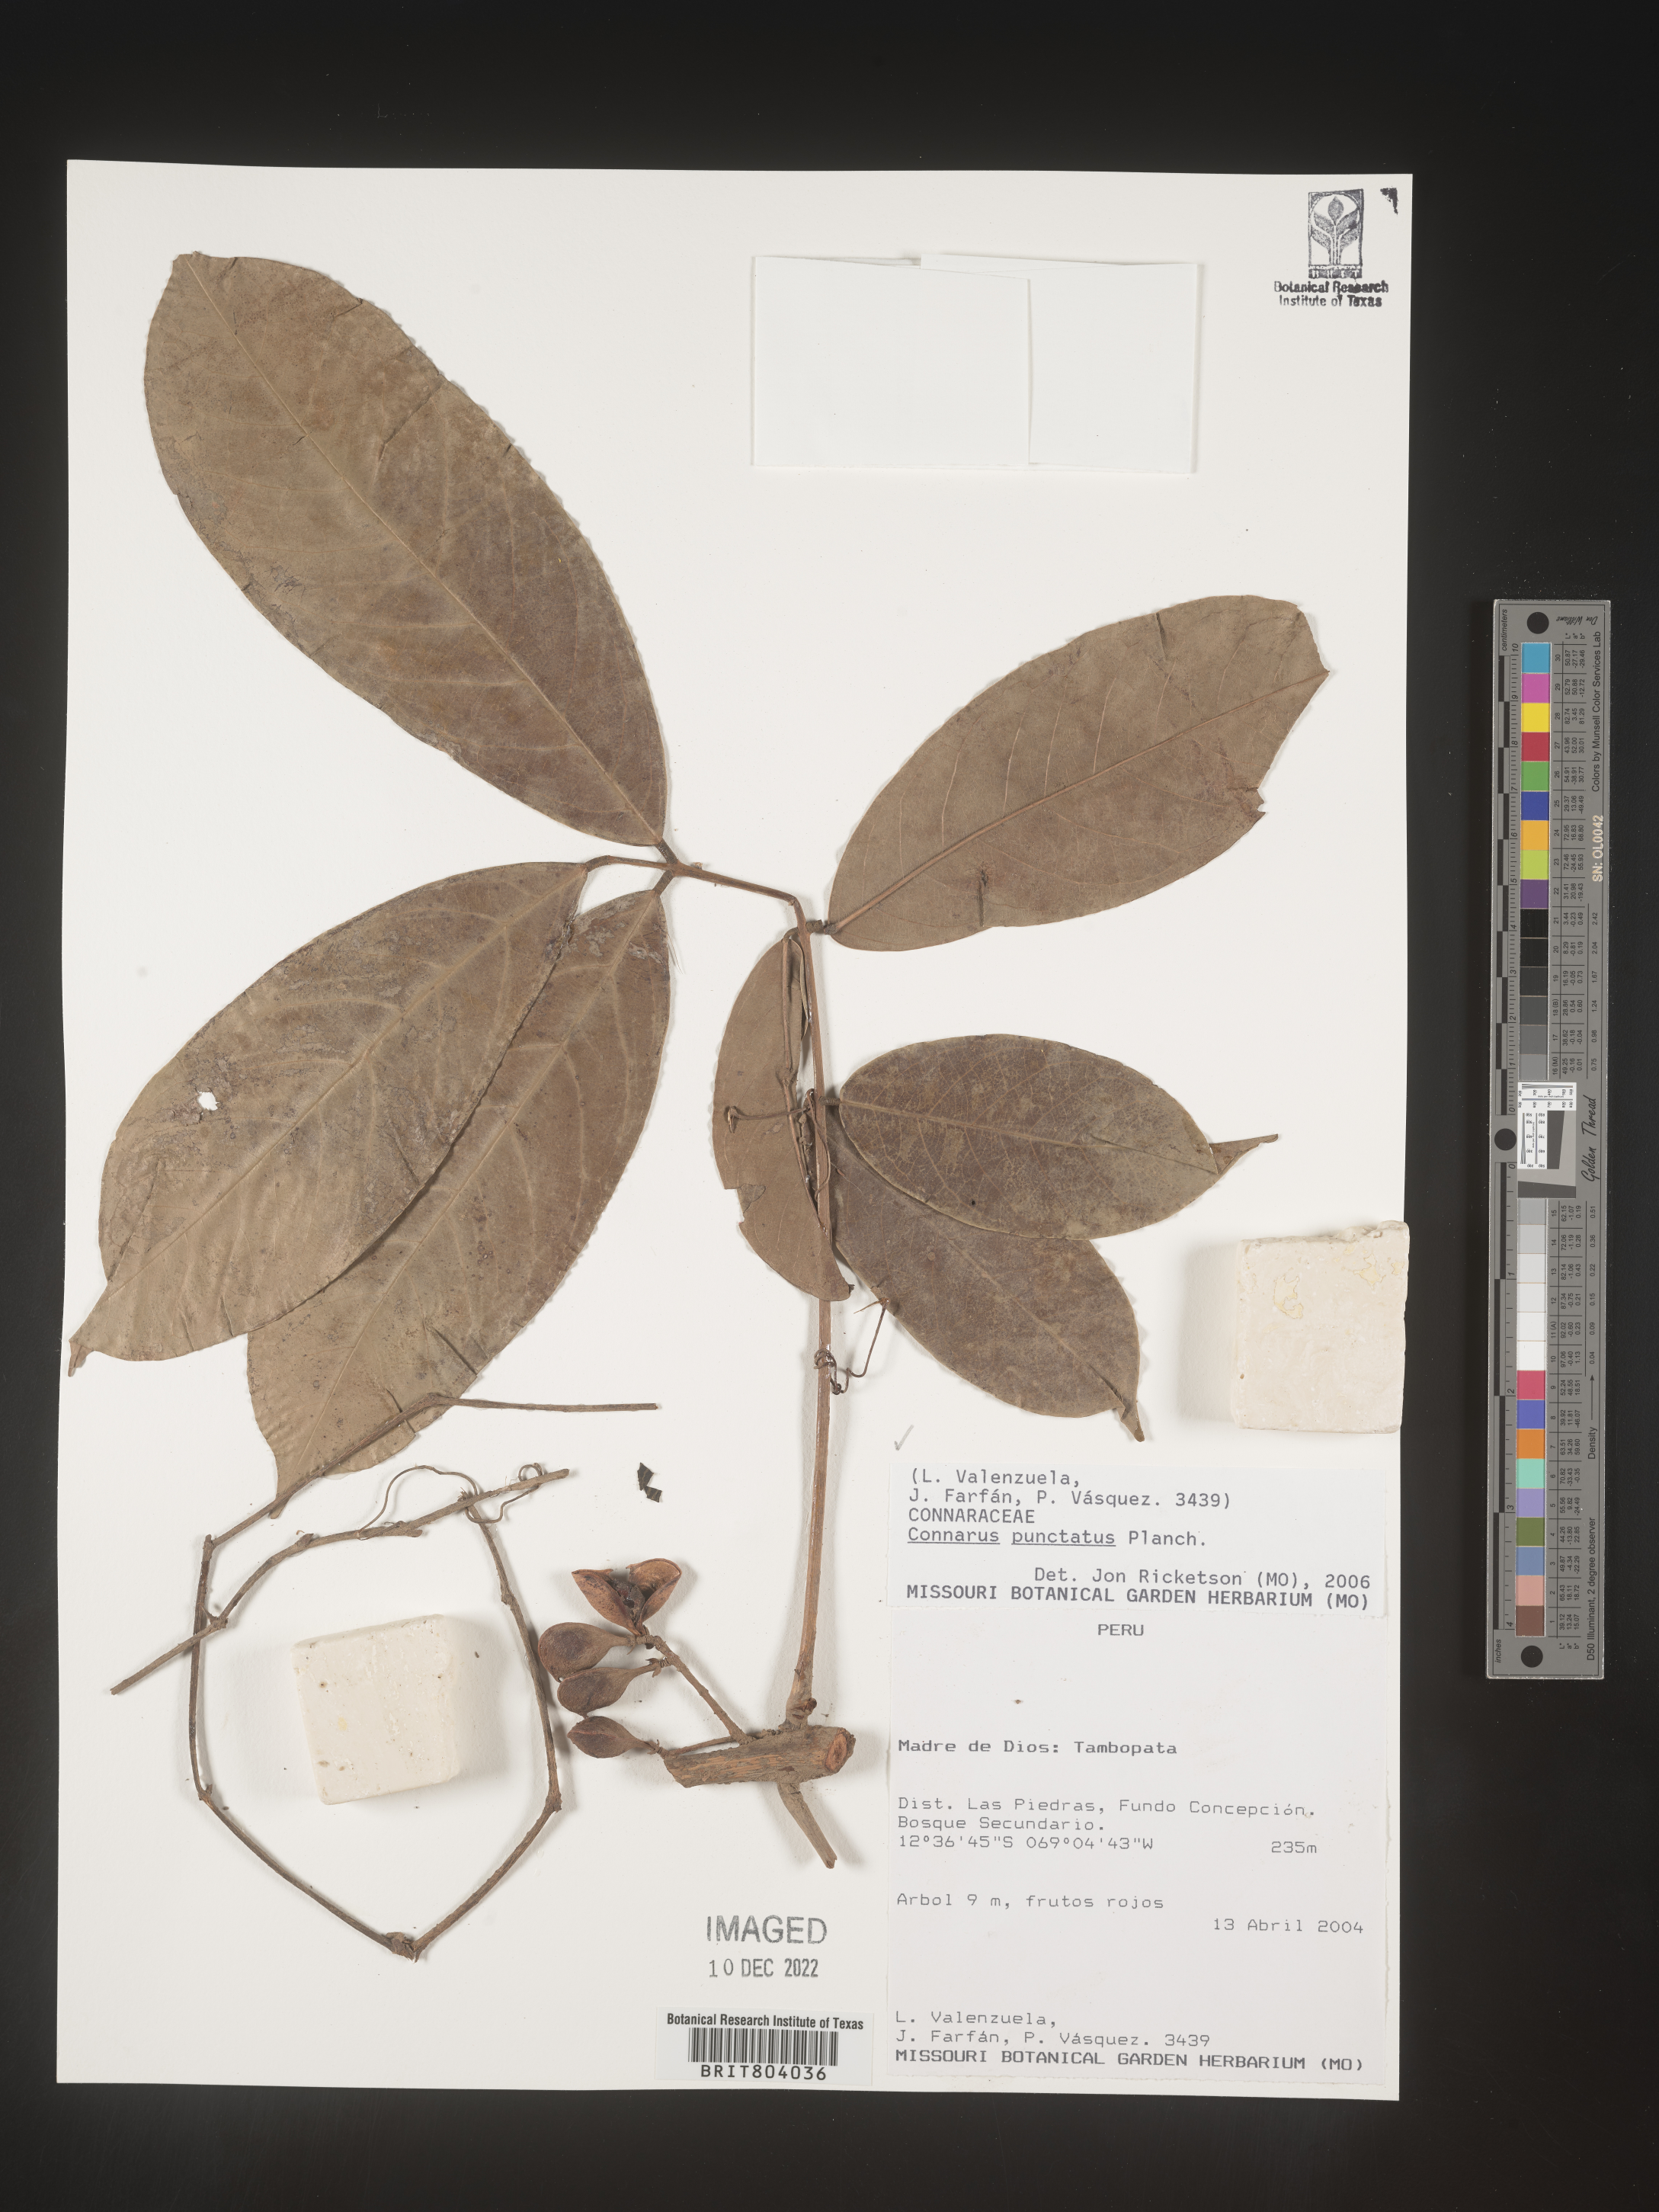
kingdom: Plantae
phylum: Tracheophyta
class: Magnoliopsida
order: Oxalidales
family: Connaraceae
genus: Connarus
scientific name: Connarus
